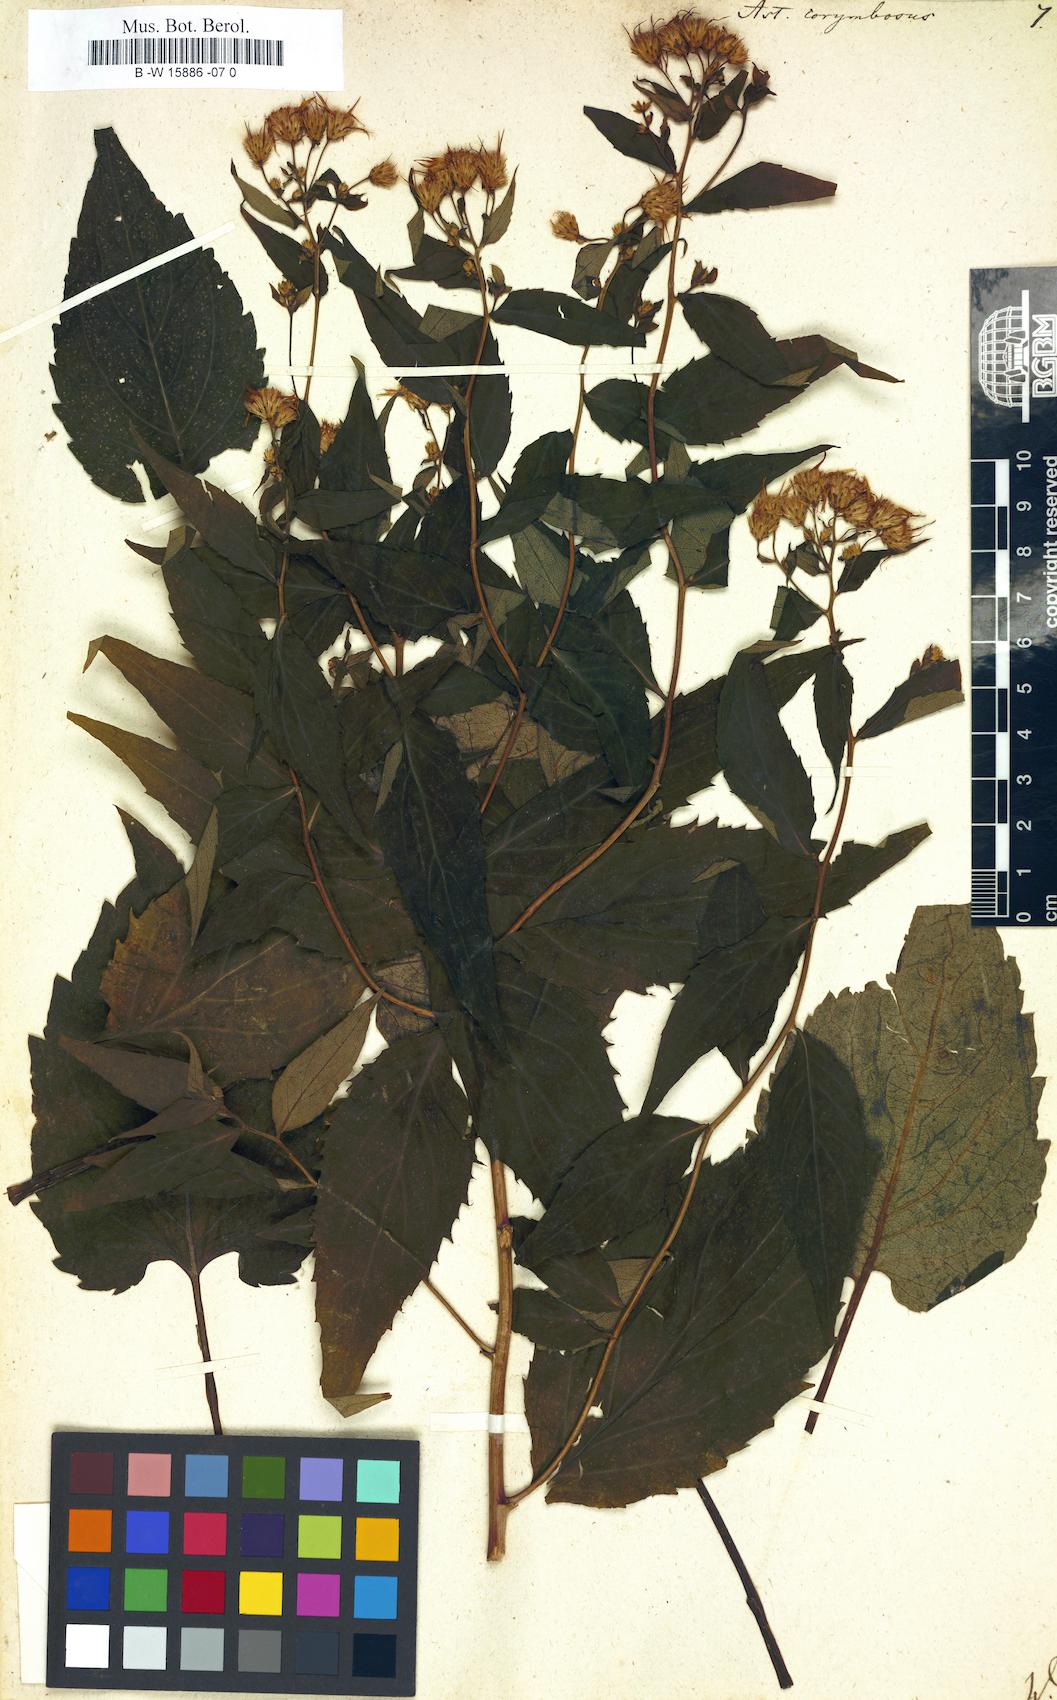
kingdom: Plantae
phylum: Tracheophyta
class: Magnoliopsida
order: Asterales
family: Asteraceae
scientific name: Asteraceae
